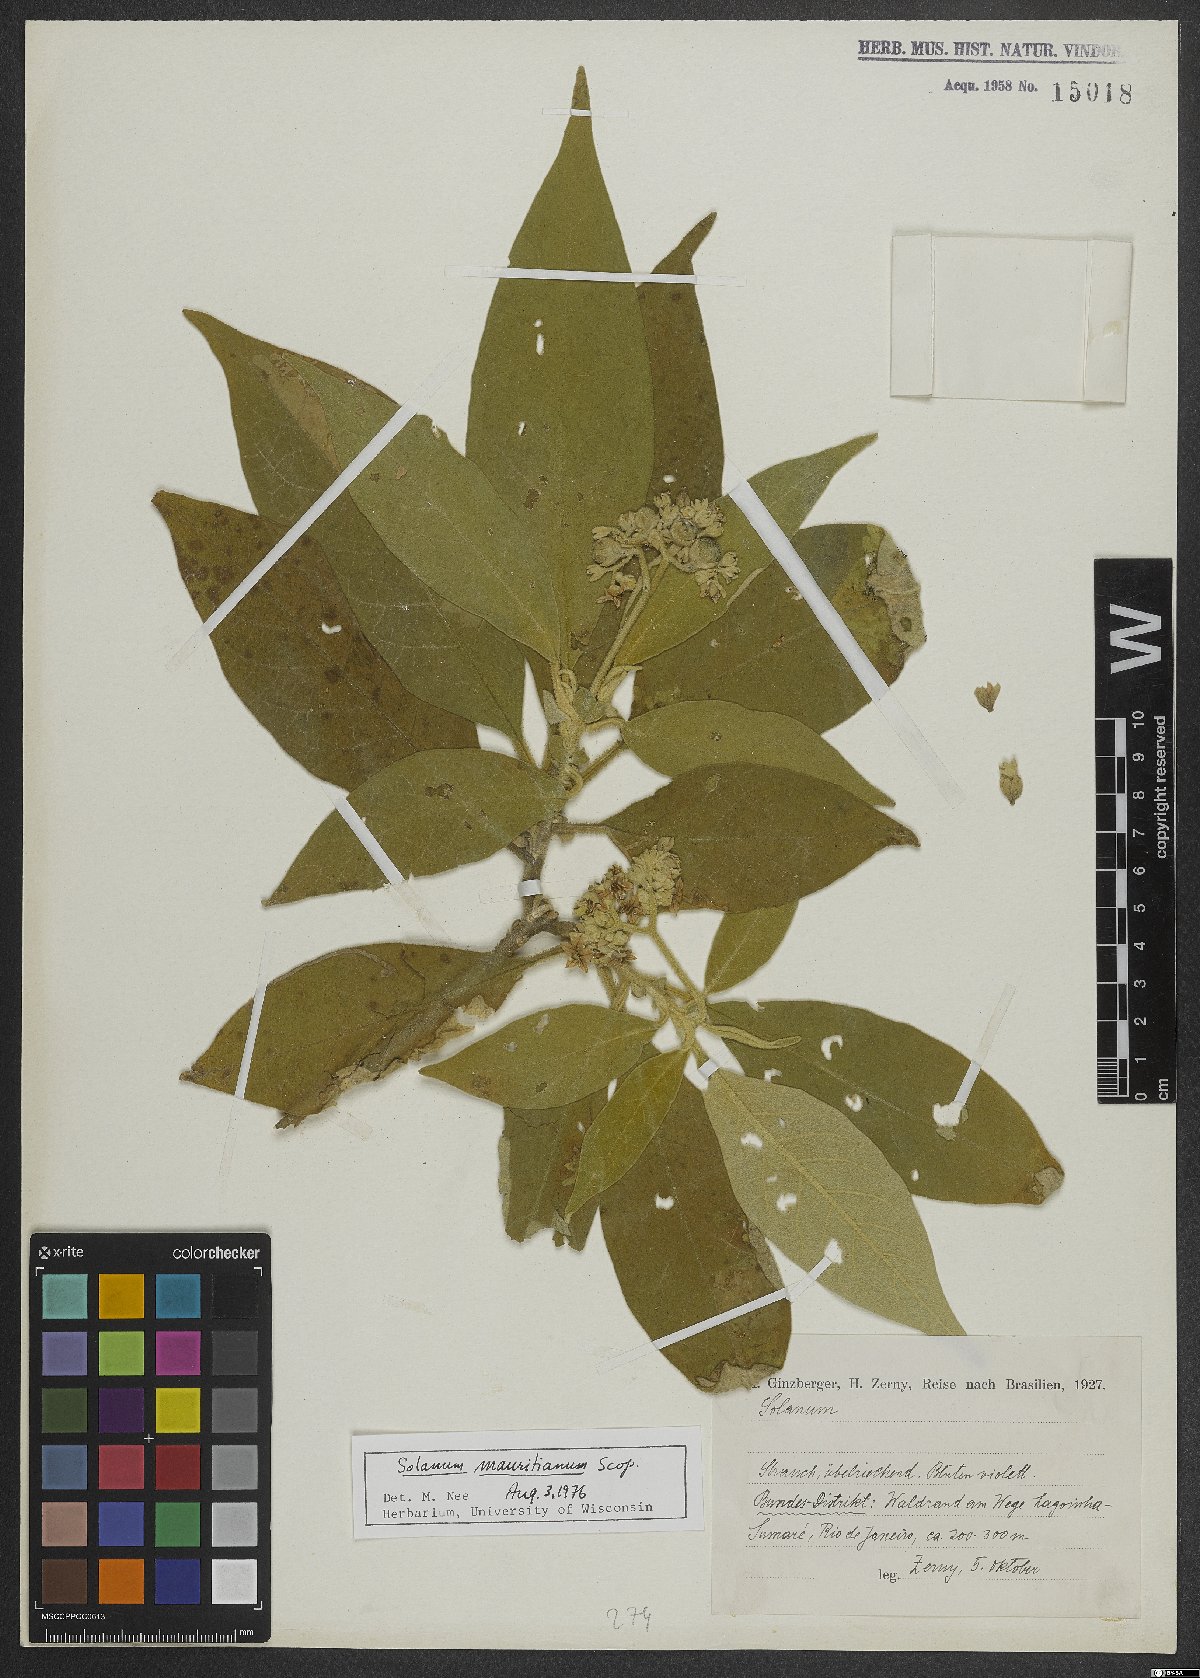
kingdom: Plantae
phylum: Tracheophyta
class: Magnoliopsida
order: Solanales
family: Solanaceae
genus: Solanum
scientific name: Solanum mauritianum
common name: Earleaf nightshade
